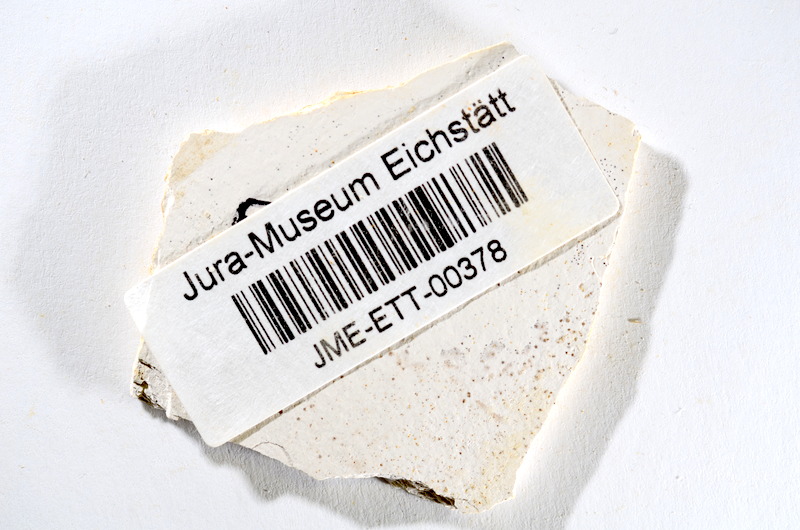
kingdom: Animalia
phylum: Chordata
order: Salmoniformes
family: Orthogonikleithridae
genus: Orthogonikleithrus
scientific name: Orthogonikleithrus hoelli
